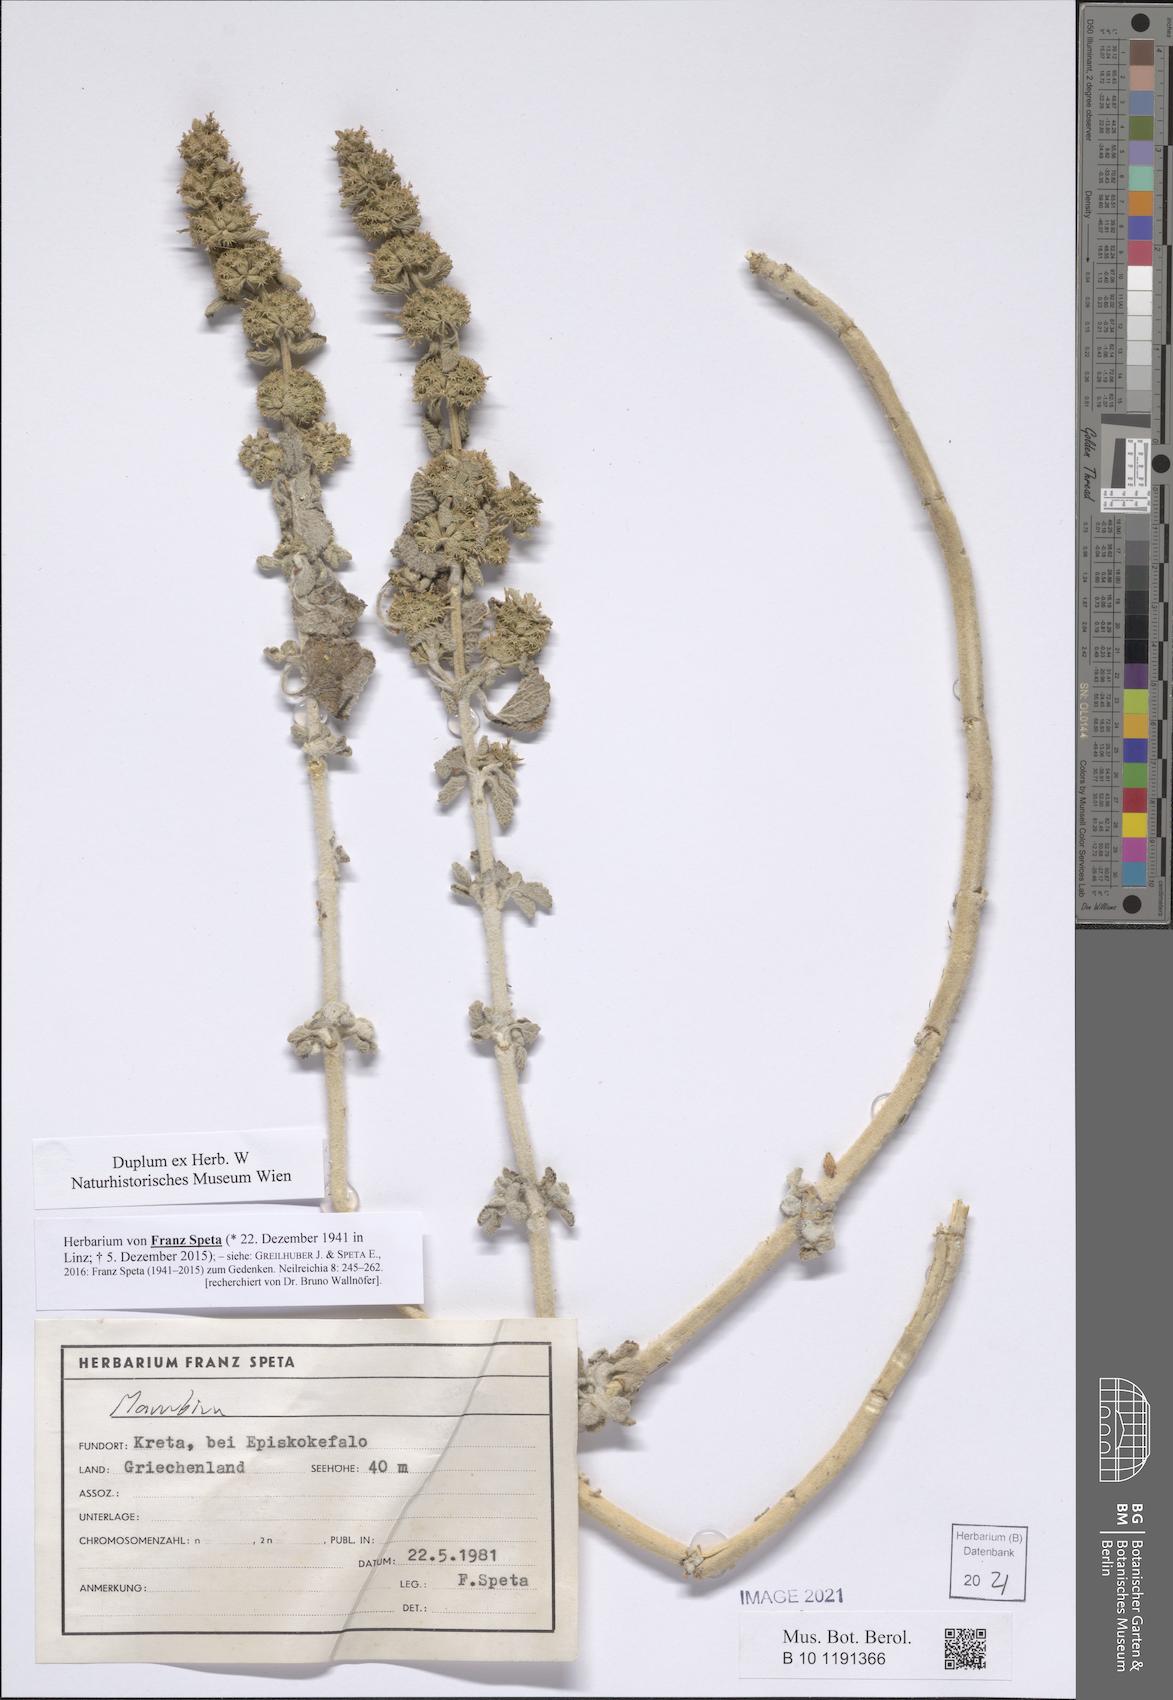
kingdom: Plantae
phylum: Tracheophyta
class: Magnoliopsida
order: Lamiales
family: Lamiaceae
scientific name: Lamiaceae
